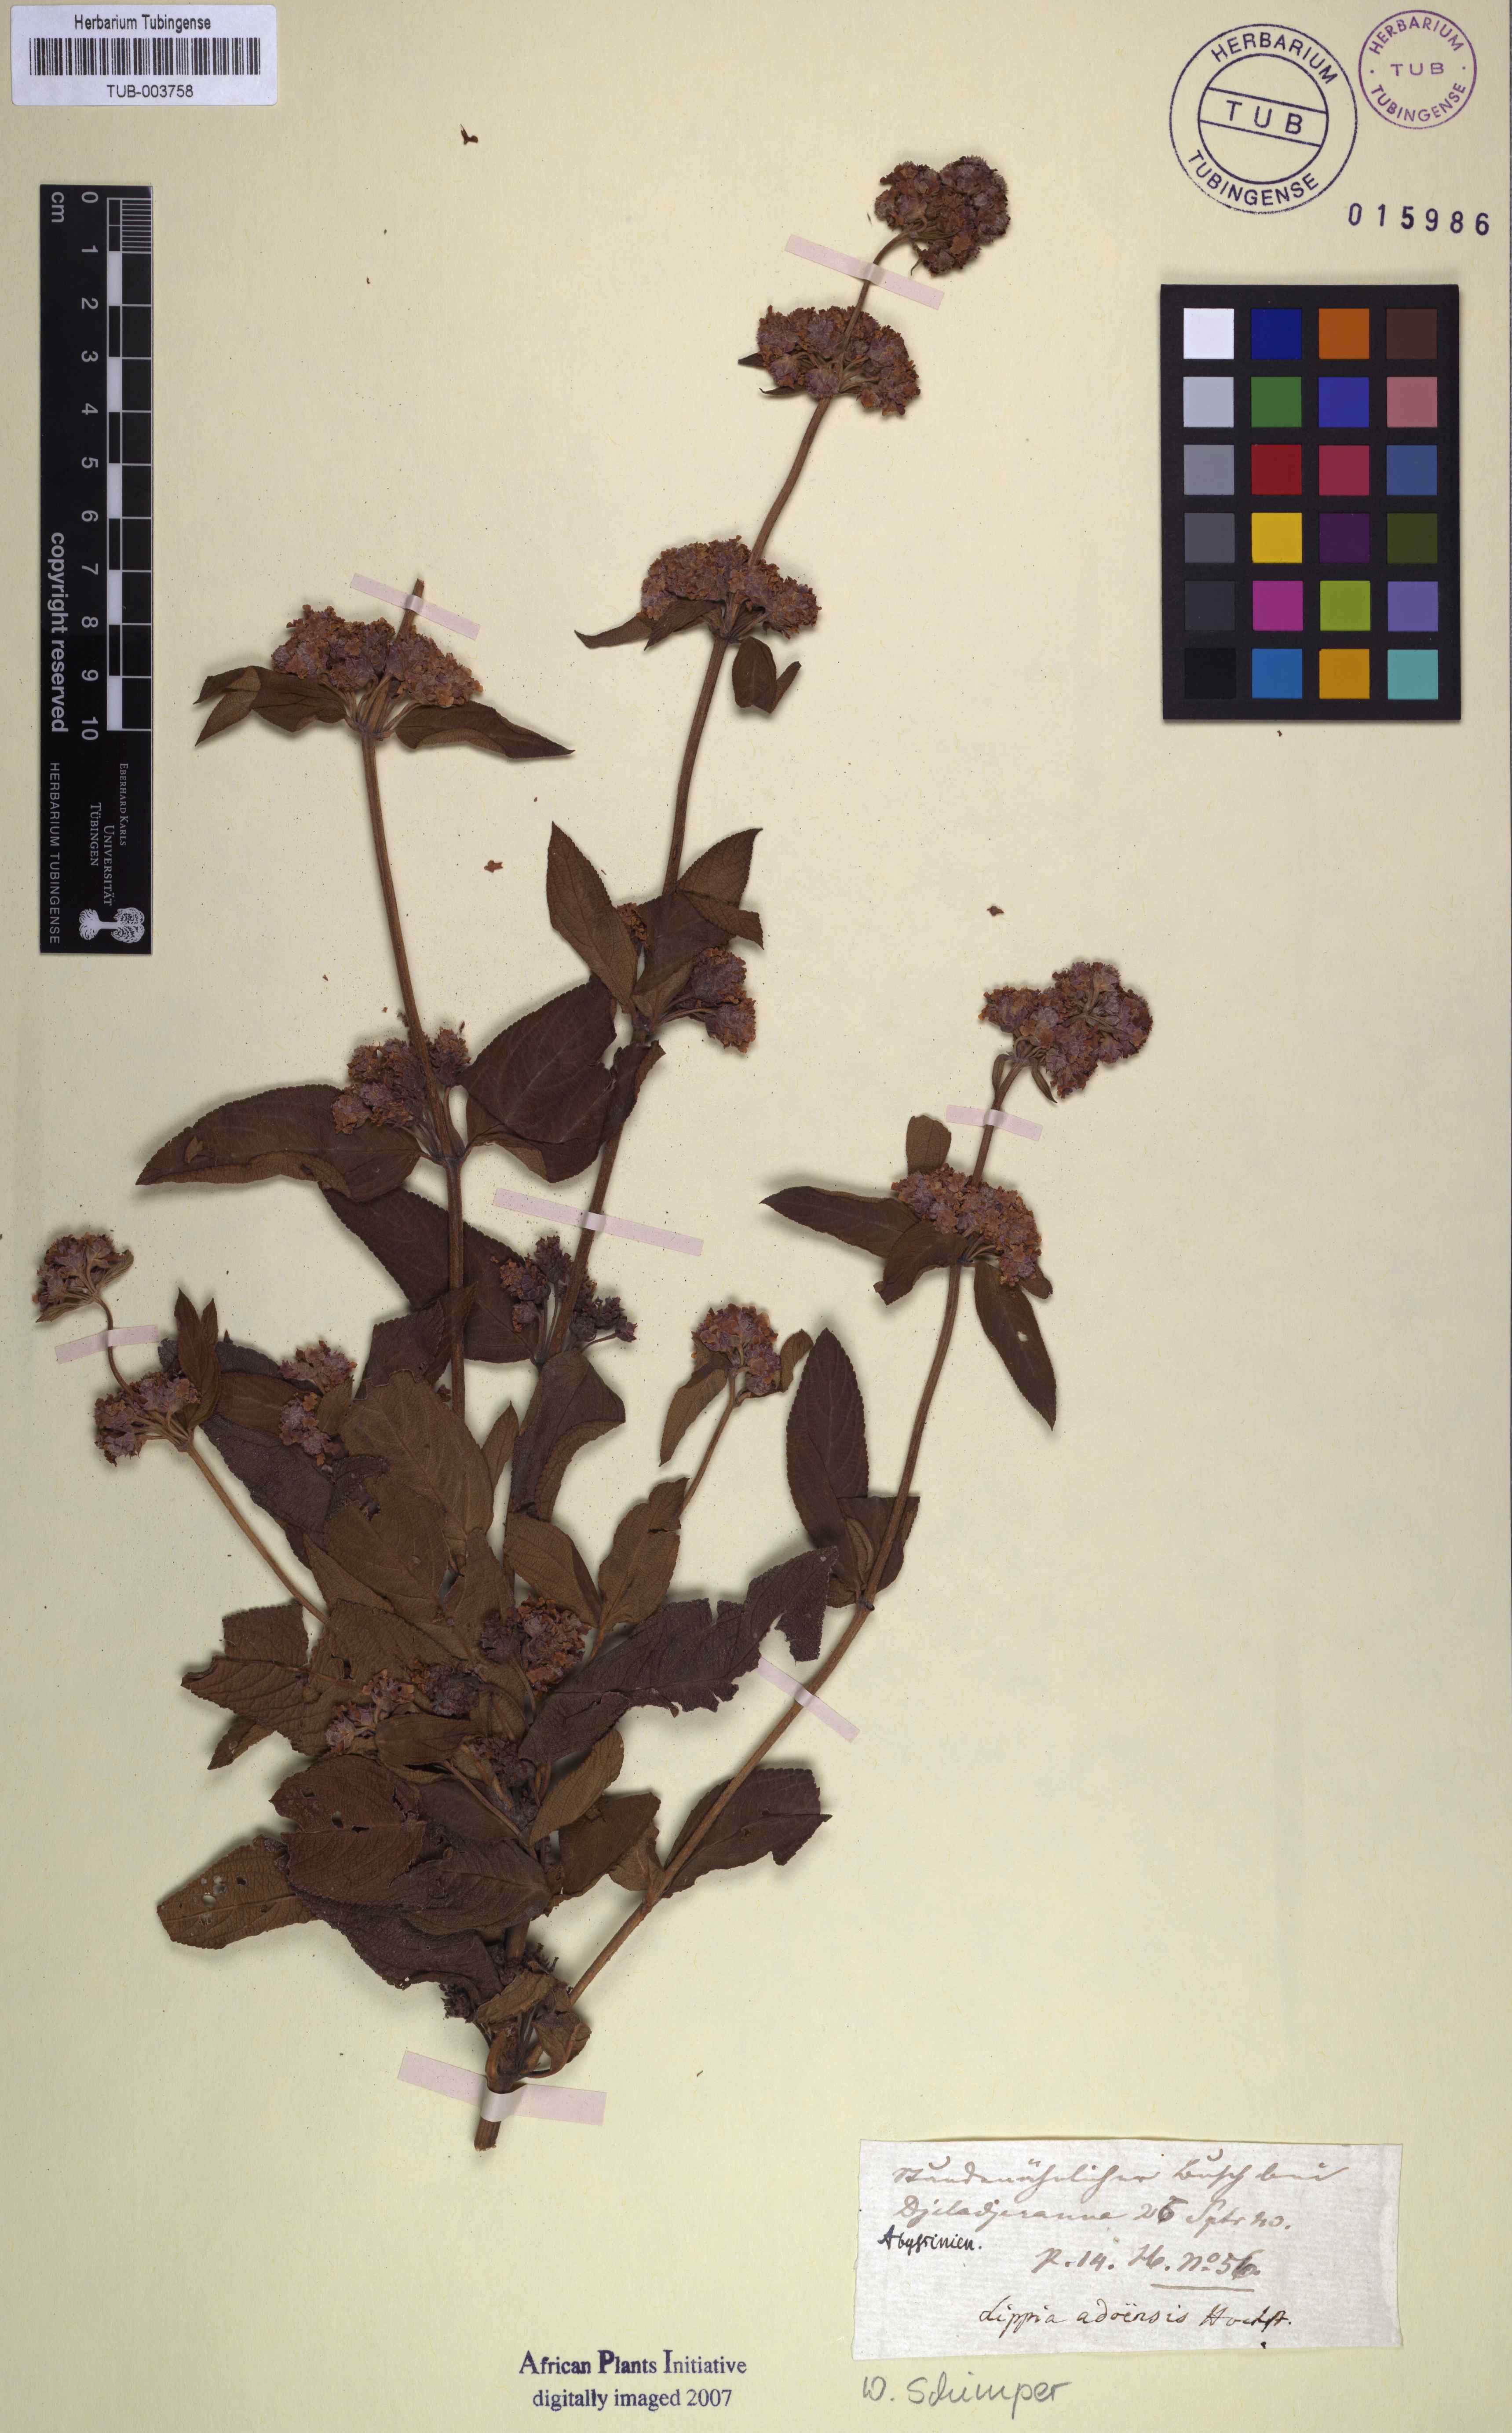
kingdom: Plantae
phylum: Tracheophyta
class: Magnoliopsida
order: Lamiales
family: Verbenaceae
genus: Lippia
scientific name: Lippia abyssinica
